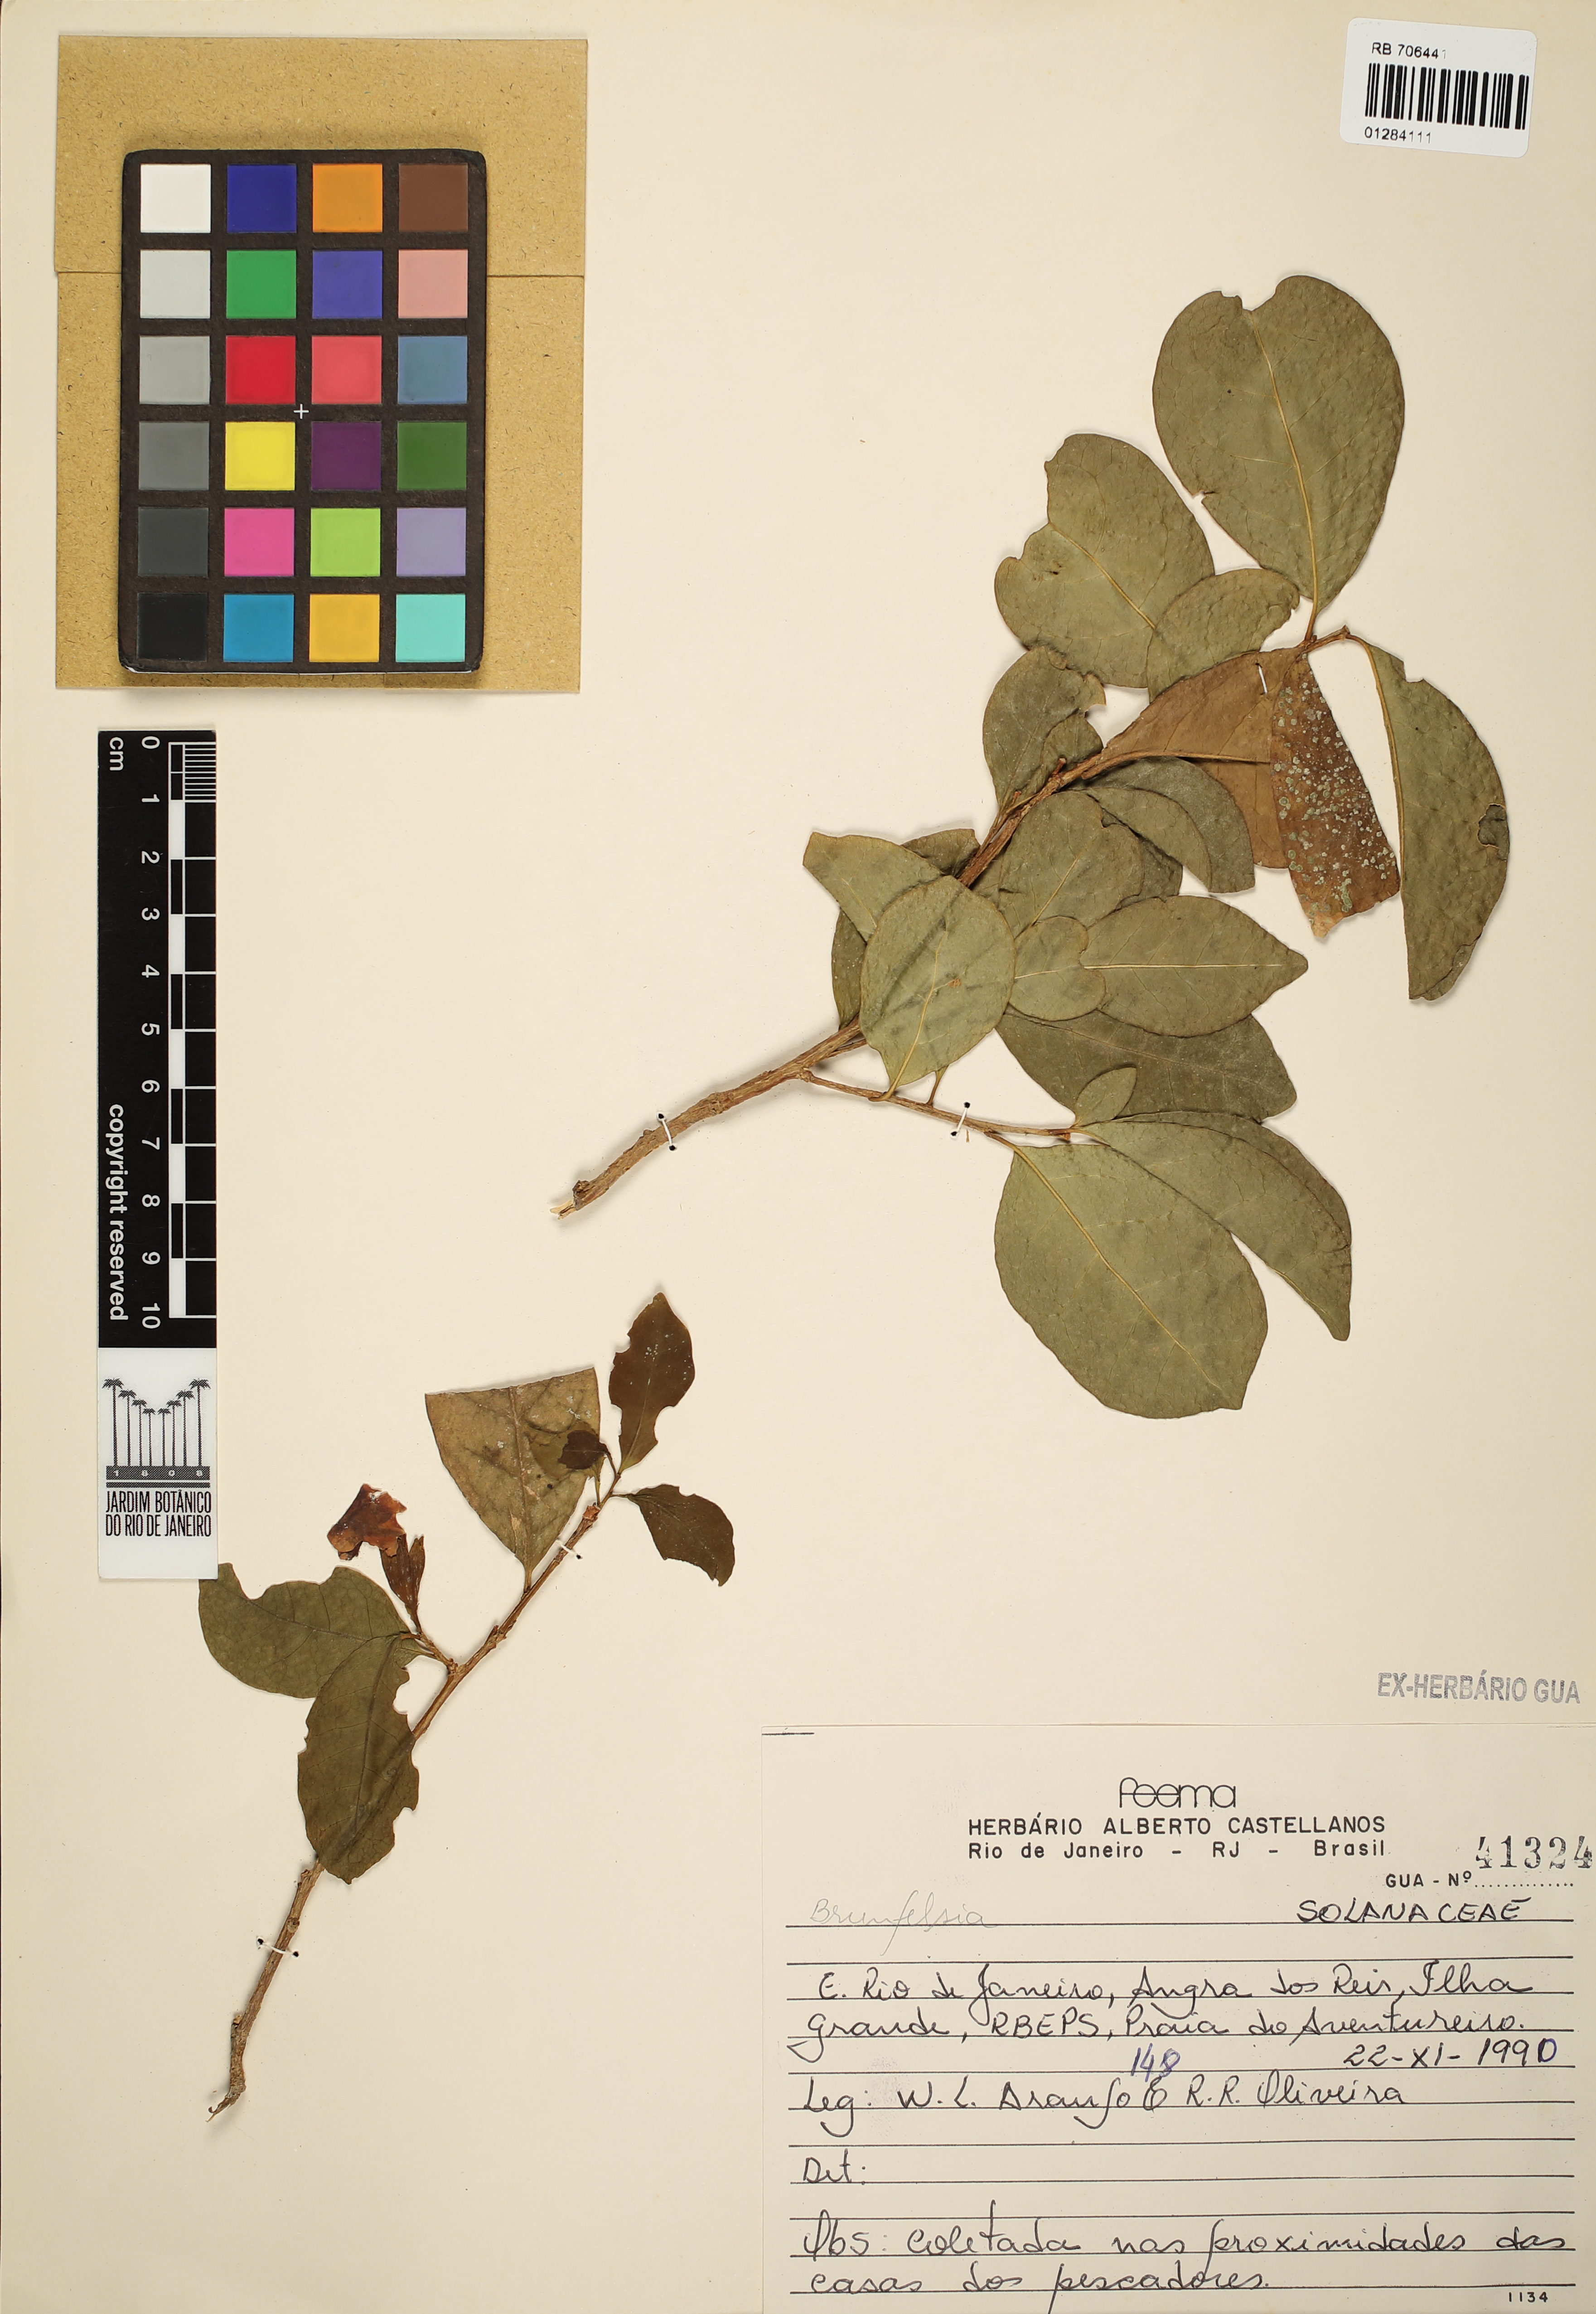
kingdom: Plantae
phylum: Tracheophyta
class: Magnoliopsida
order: Solanales
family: Solanaceae
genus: Brunfelsia
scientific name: Brunfelsia
